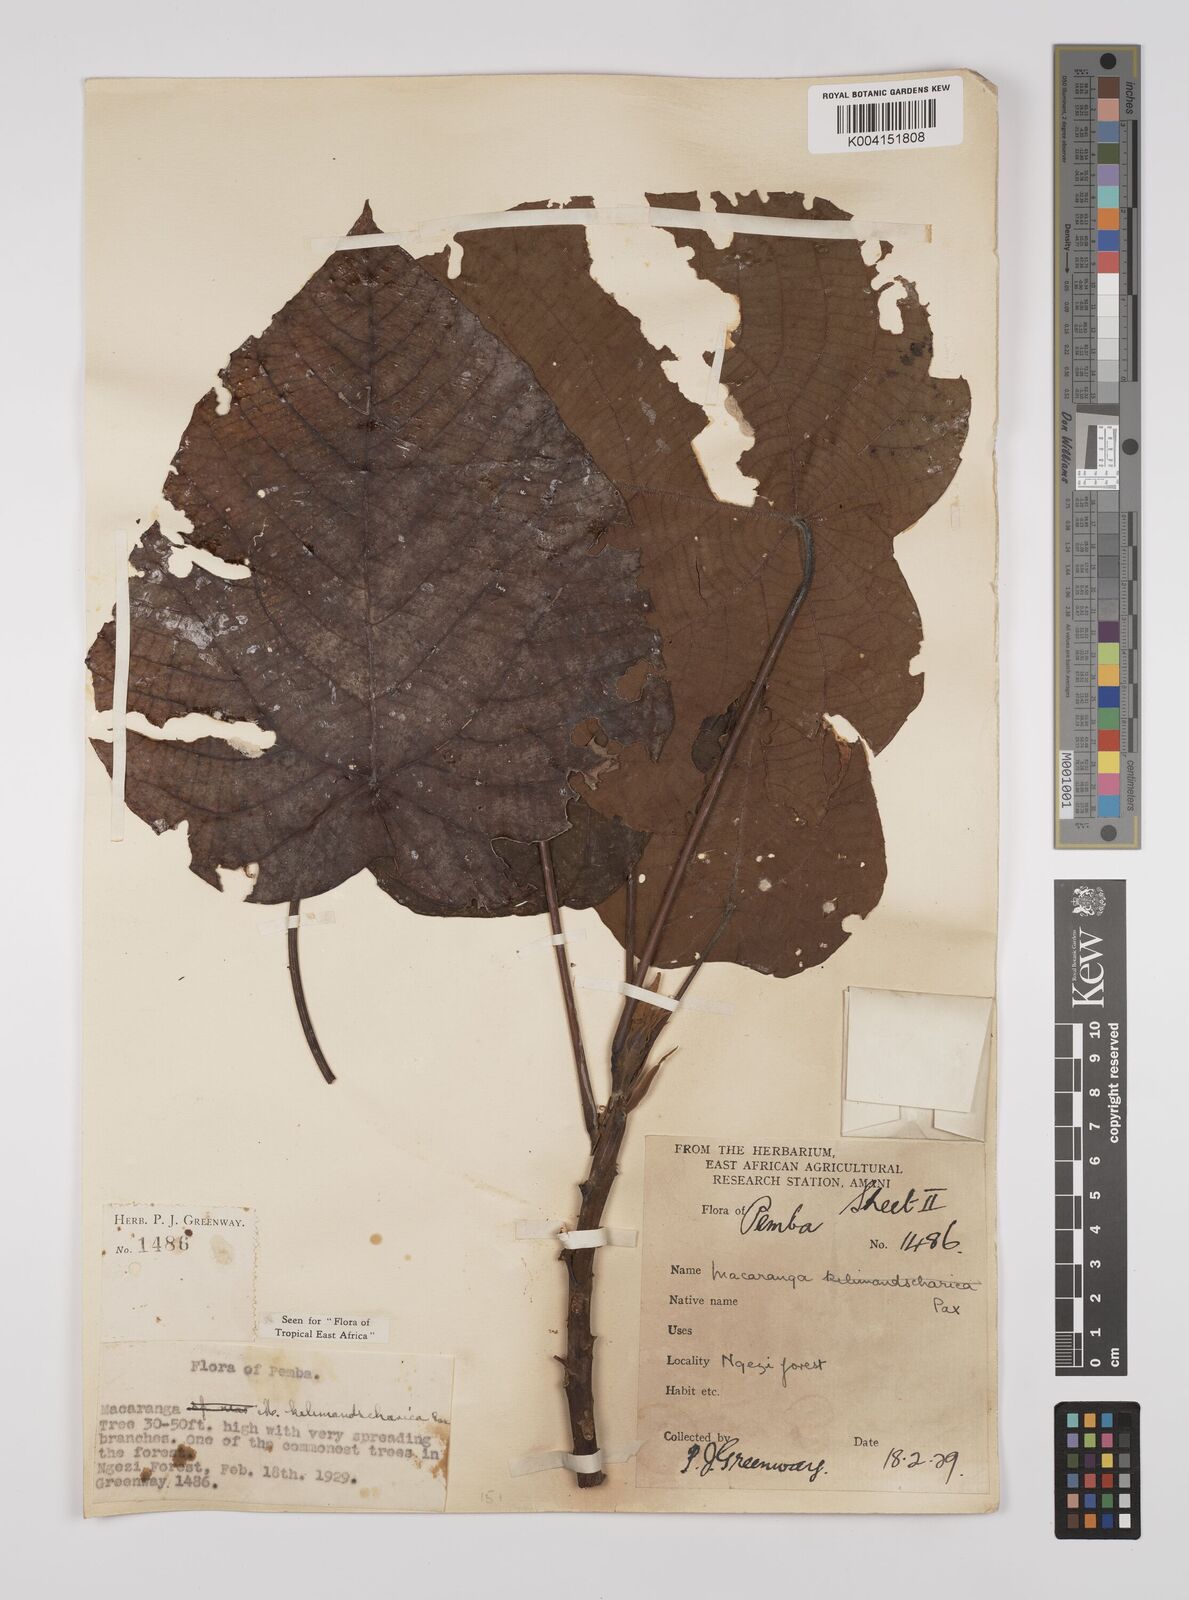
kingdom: Plantae
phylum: Tracheophyta
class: Magnoliopsida
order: Malpighiales
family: Euphorbiaceae
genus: Macaranga
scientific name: Macaranga capensis
